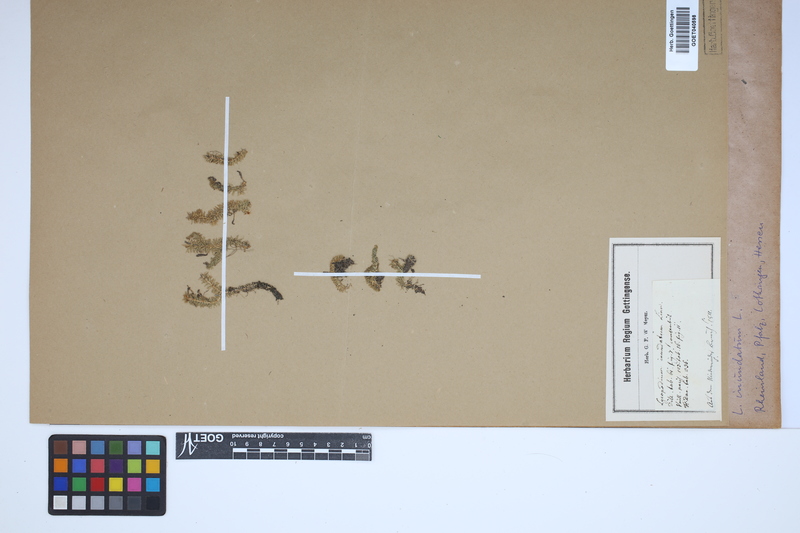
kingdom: Plantae
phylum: Tracheophyta
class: Lycopodiopsida
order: Lycopodiales
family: Lycopodiaceae
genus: Lycopodiella
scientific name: Lycopodiella inundata
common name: Marsh clubmoss
